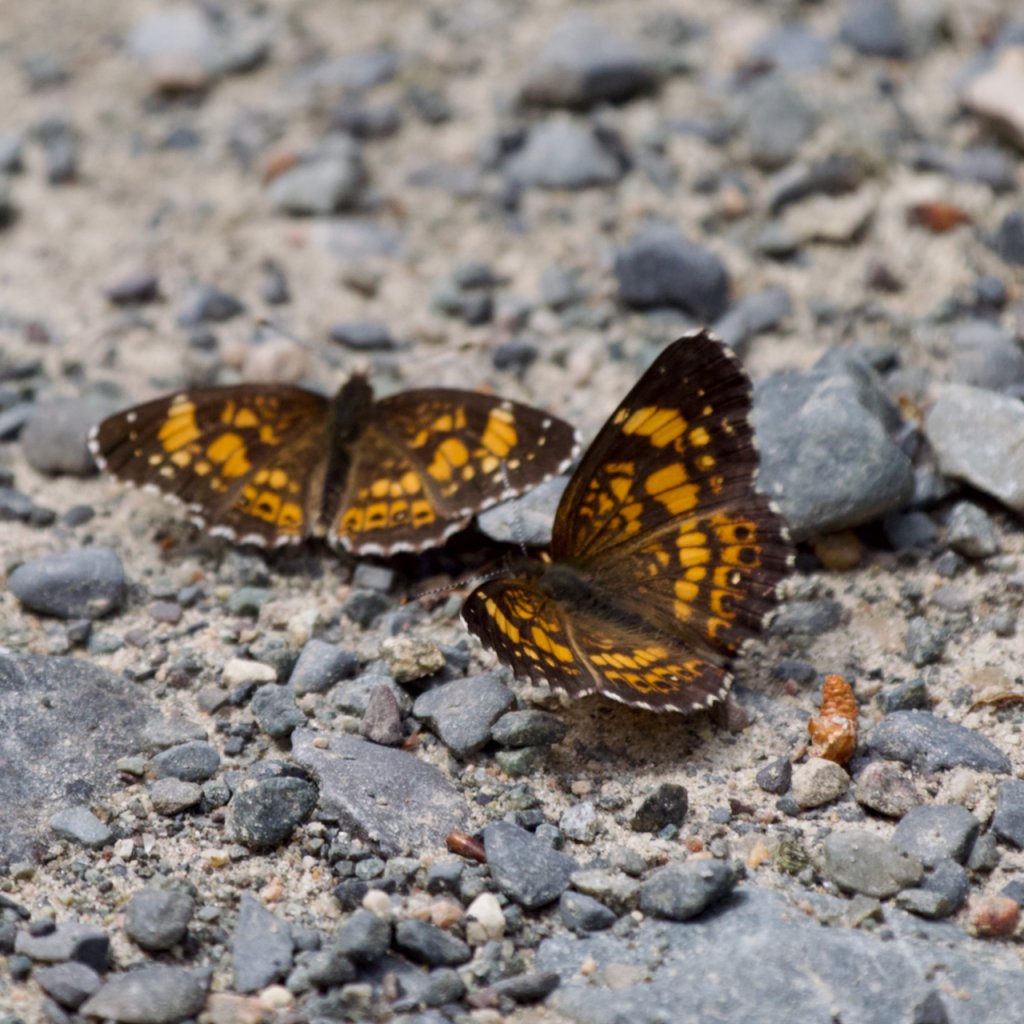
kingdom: Animalia
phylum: Arthropoda
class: Insecta
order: Lepidoptera
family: Nymphalidae
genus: Chlosyne
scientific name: Chlosyne nycteis
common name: Silvery Checkerspot
